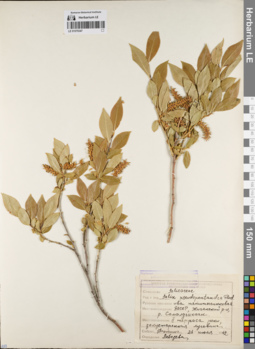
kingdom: Plantae
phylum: Tracheophyta
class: Magnoliopsida
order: Malpighiales
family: Salicaceae
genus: Salix
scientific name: Salix pseudopentandra
